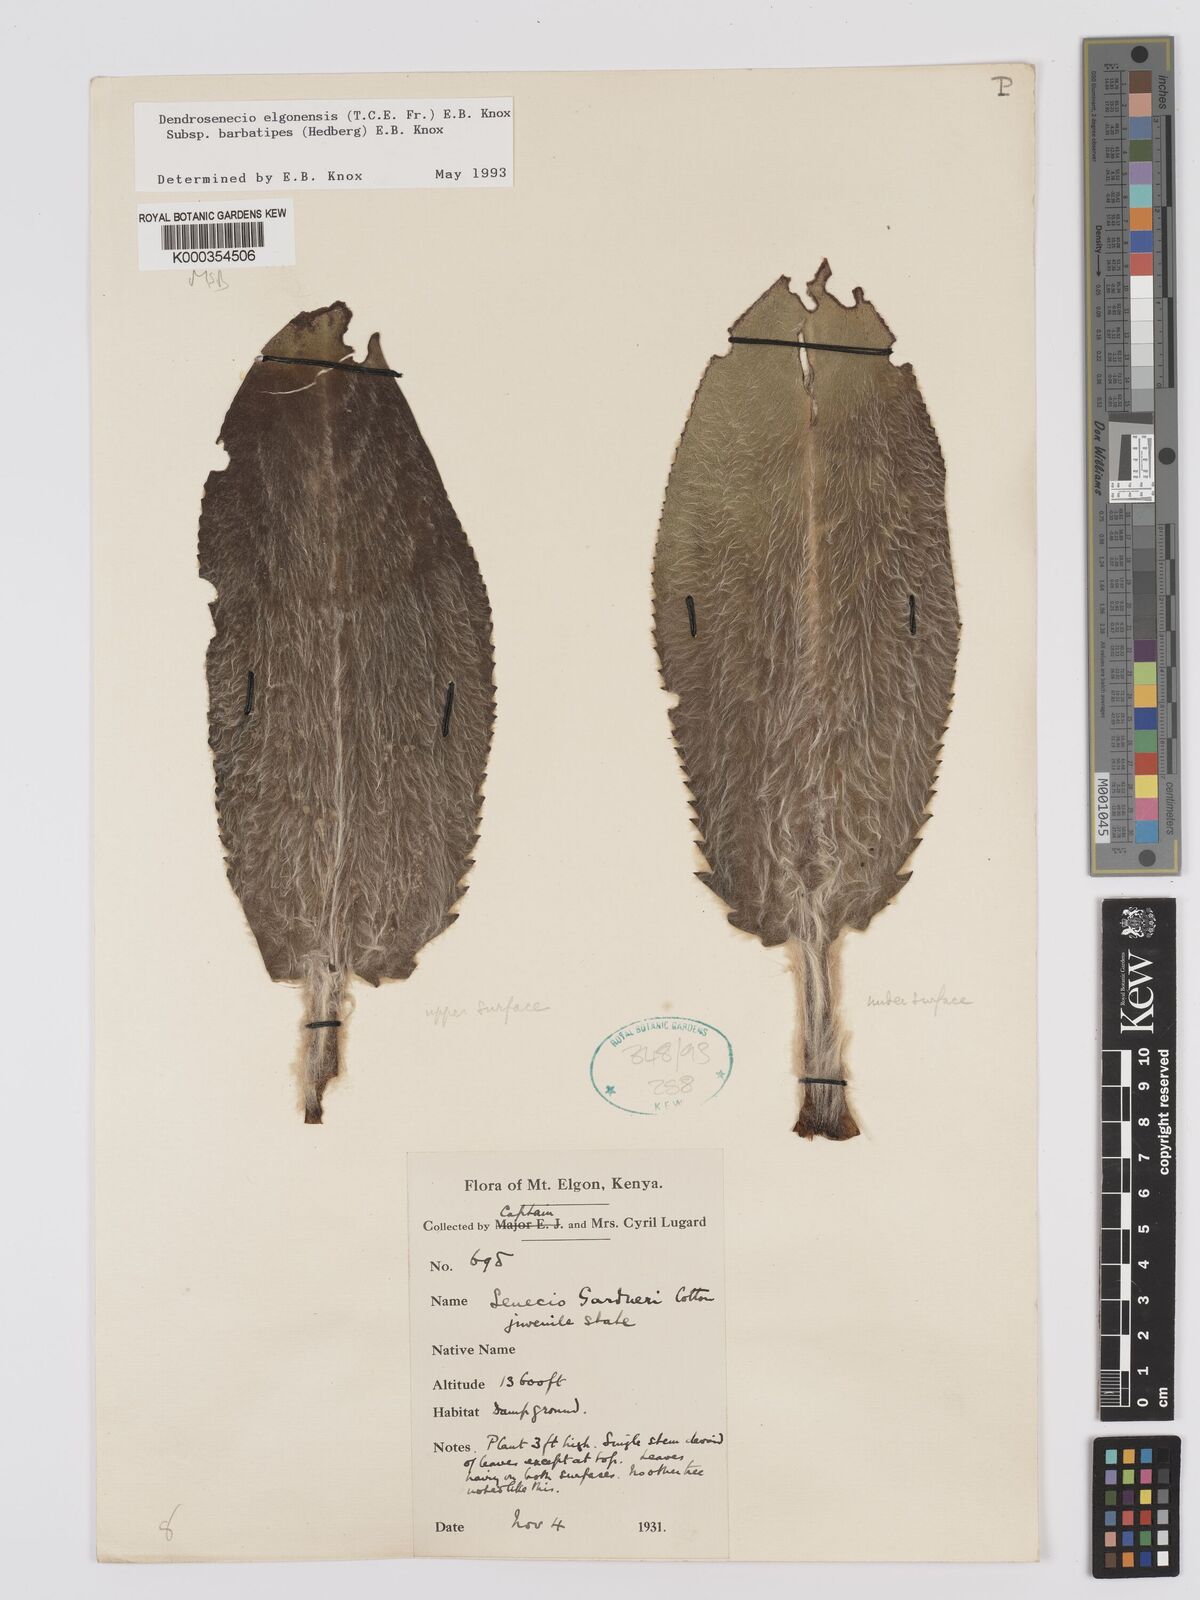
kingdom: Plantae
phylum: Tracheophyta
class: Magnoliopsida
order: Asterales
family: Asteraceae
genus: Dendrosenecio
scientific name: Dendrosenecio elgonensis
